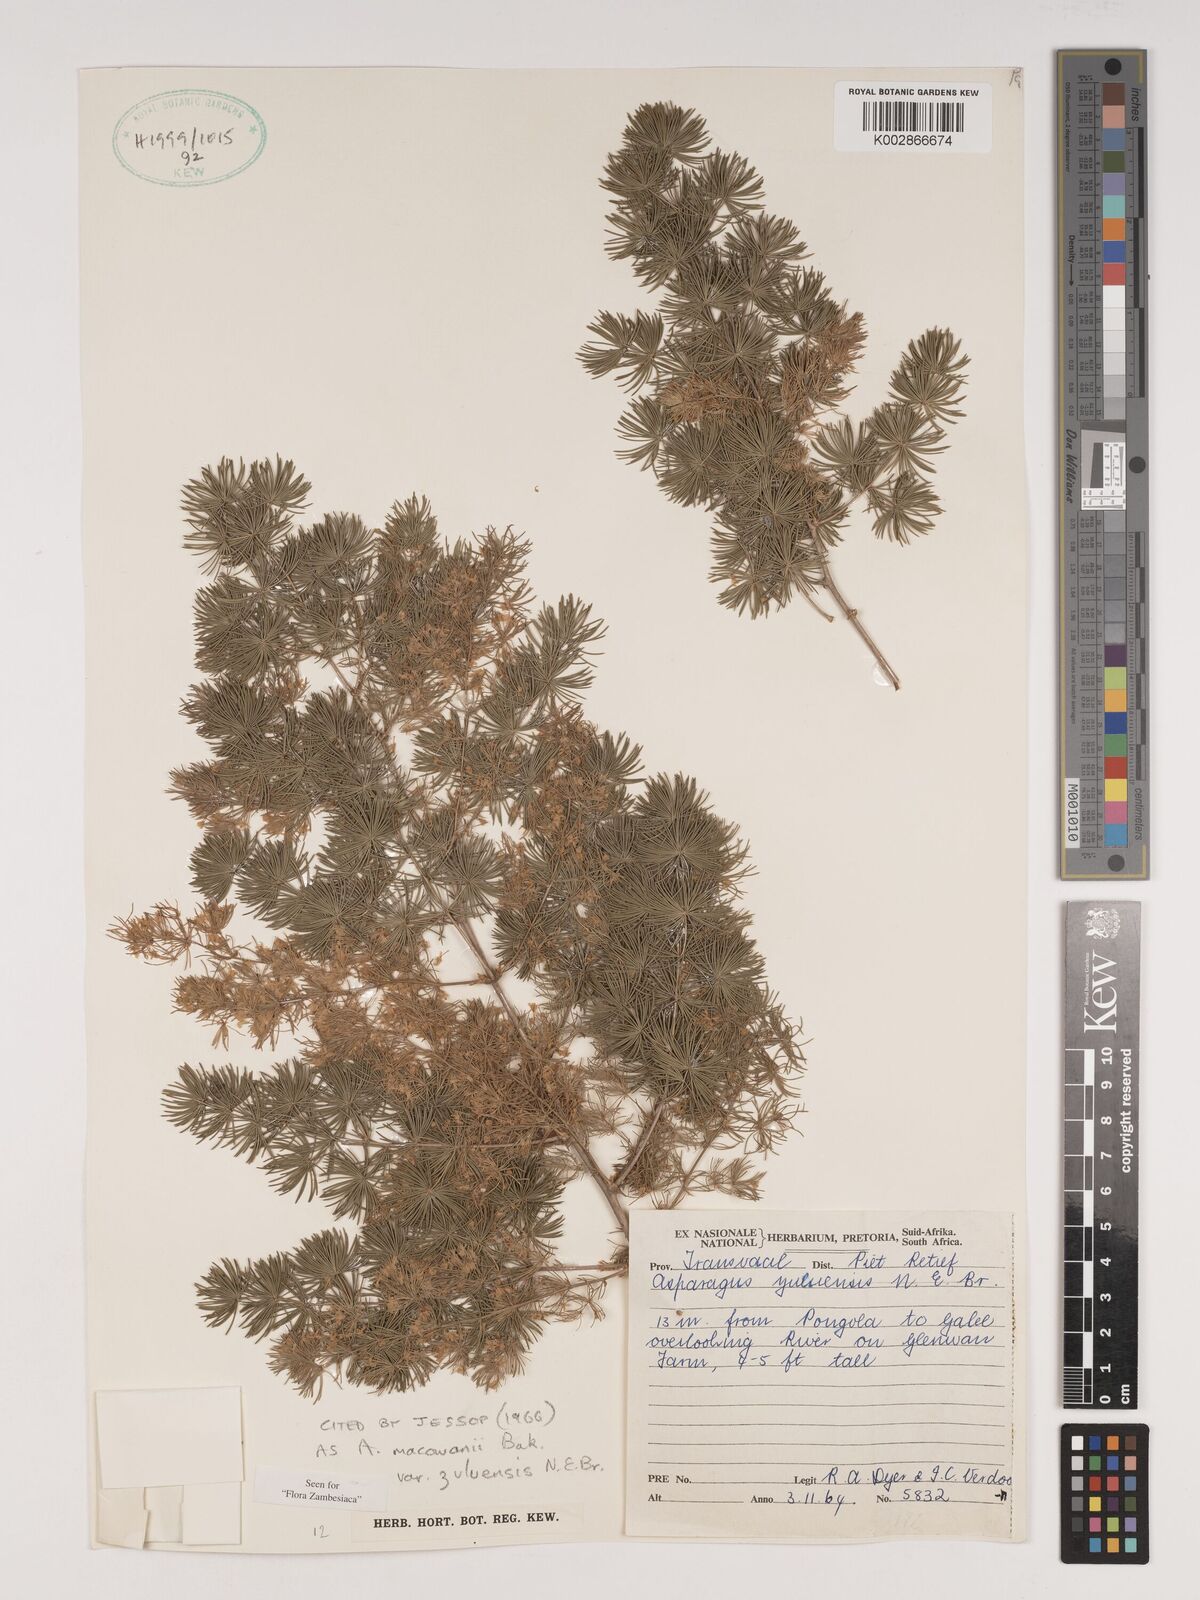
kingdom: Plantae
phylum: Tracheophyta
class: Liliopsida
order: Asparagales
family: Asparagaceae
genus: Asparagus
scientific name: Asparagus
